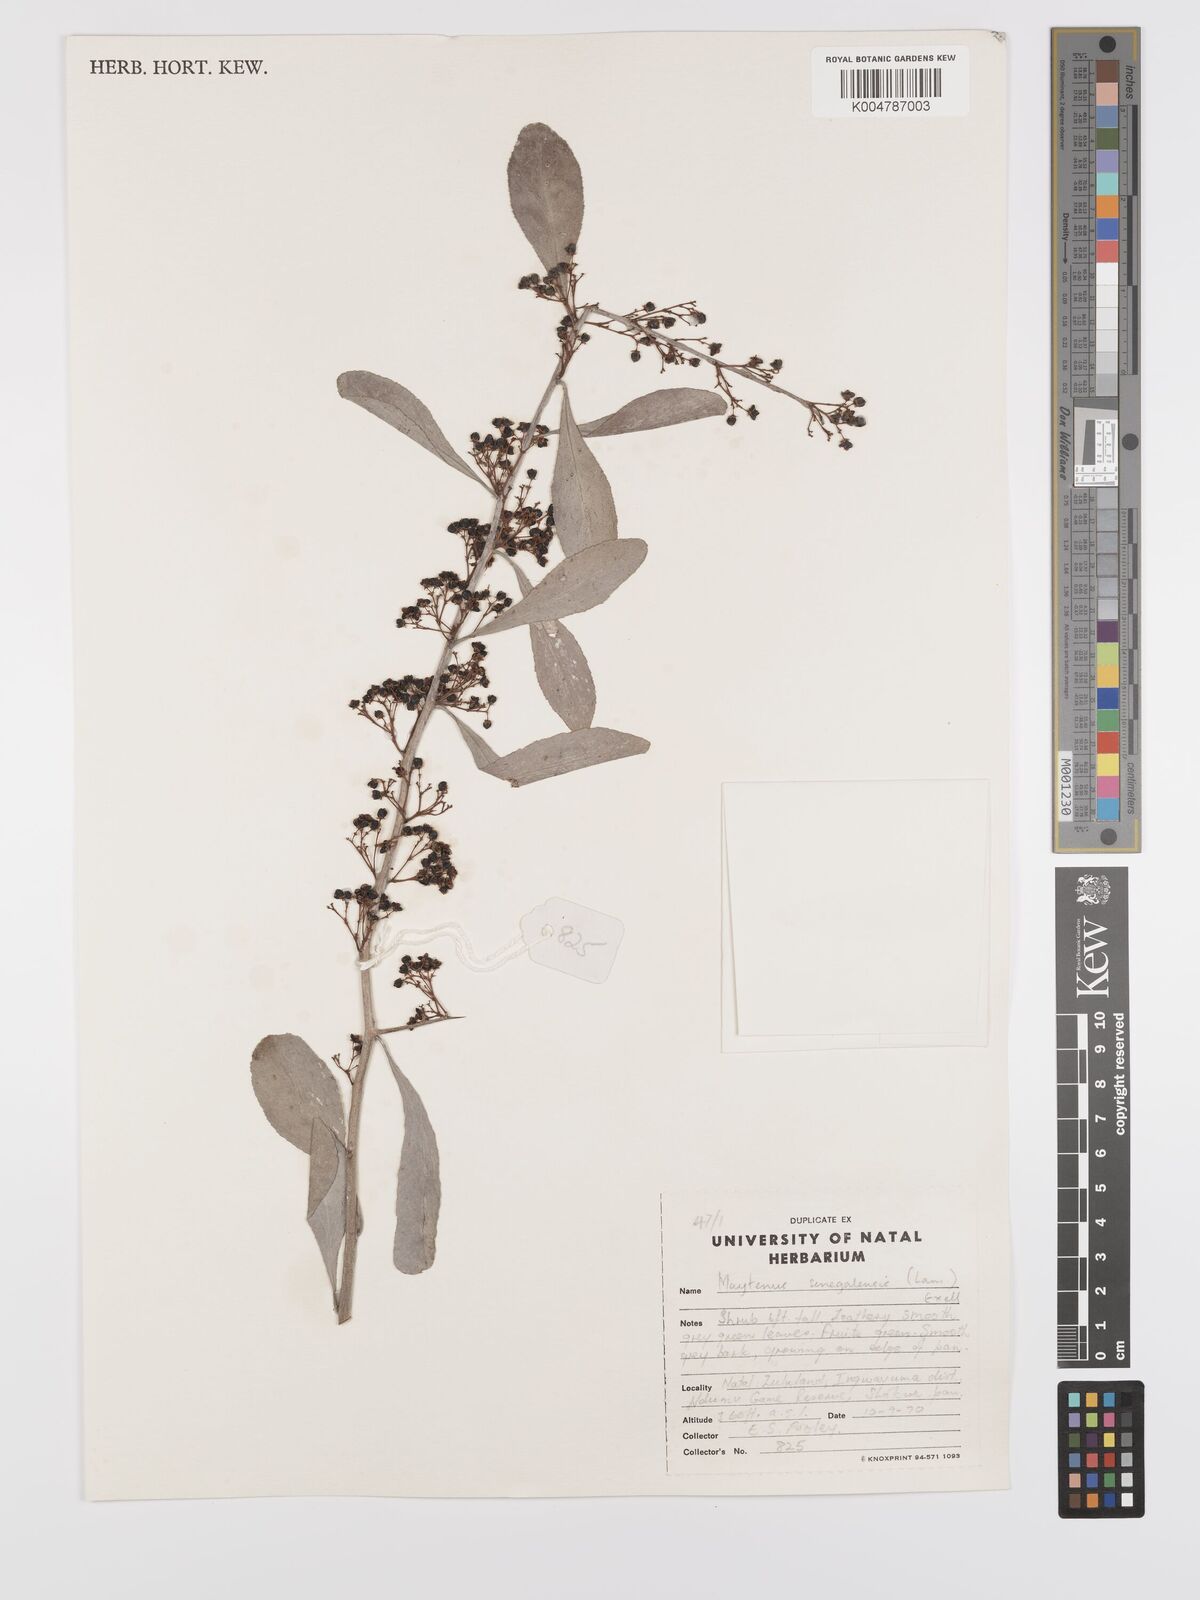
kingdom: Plantae
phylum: Tracheophyta
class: Magnoliopsida
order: Celastrales
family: Celastraceae
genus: Gymnosporia
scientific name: Gymnosporia senegalensis
